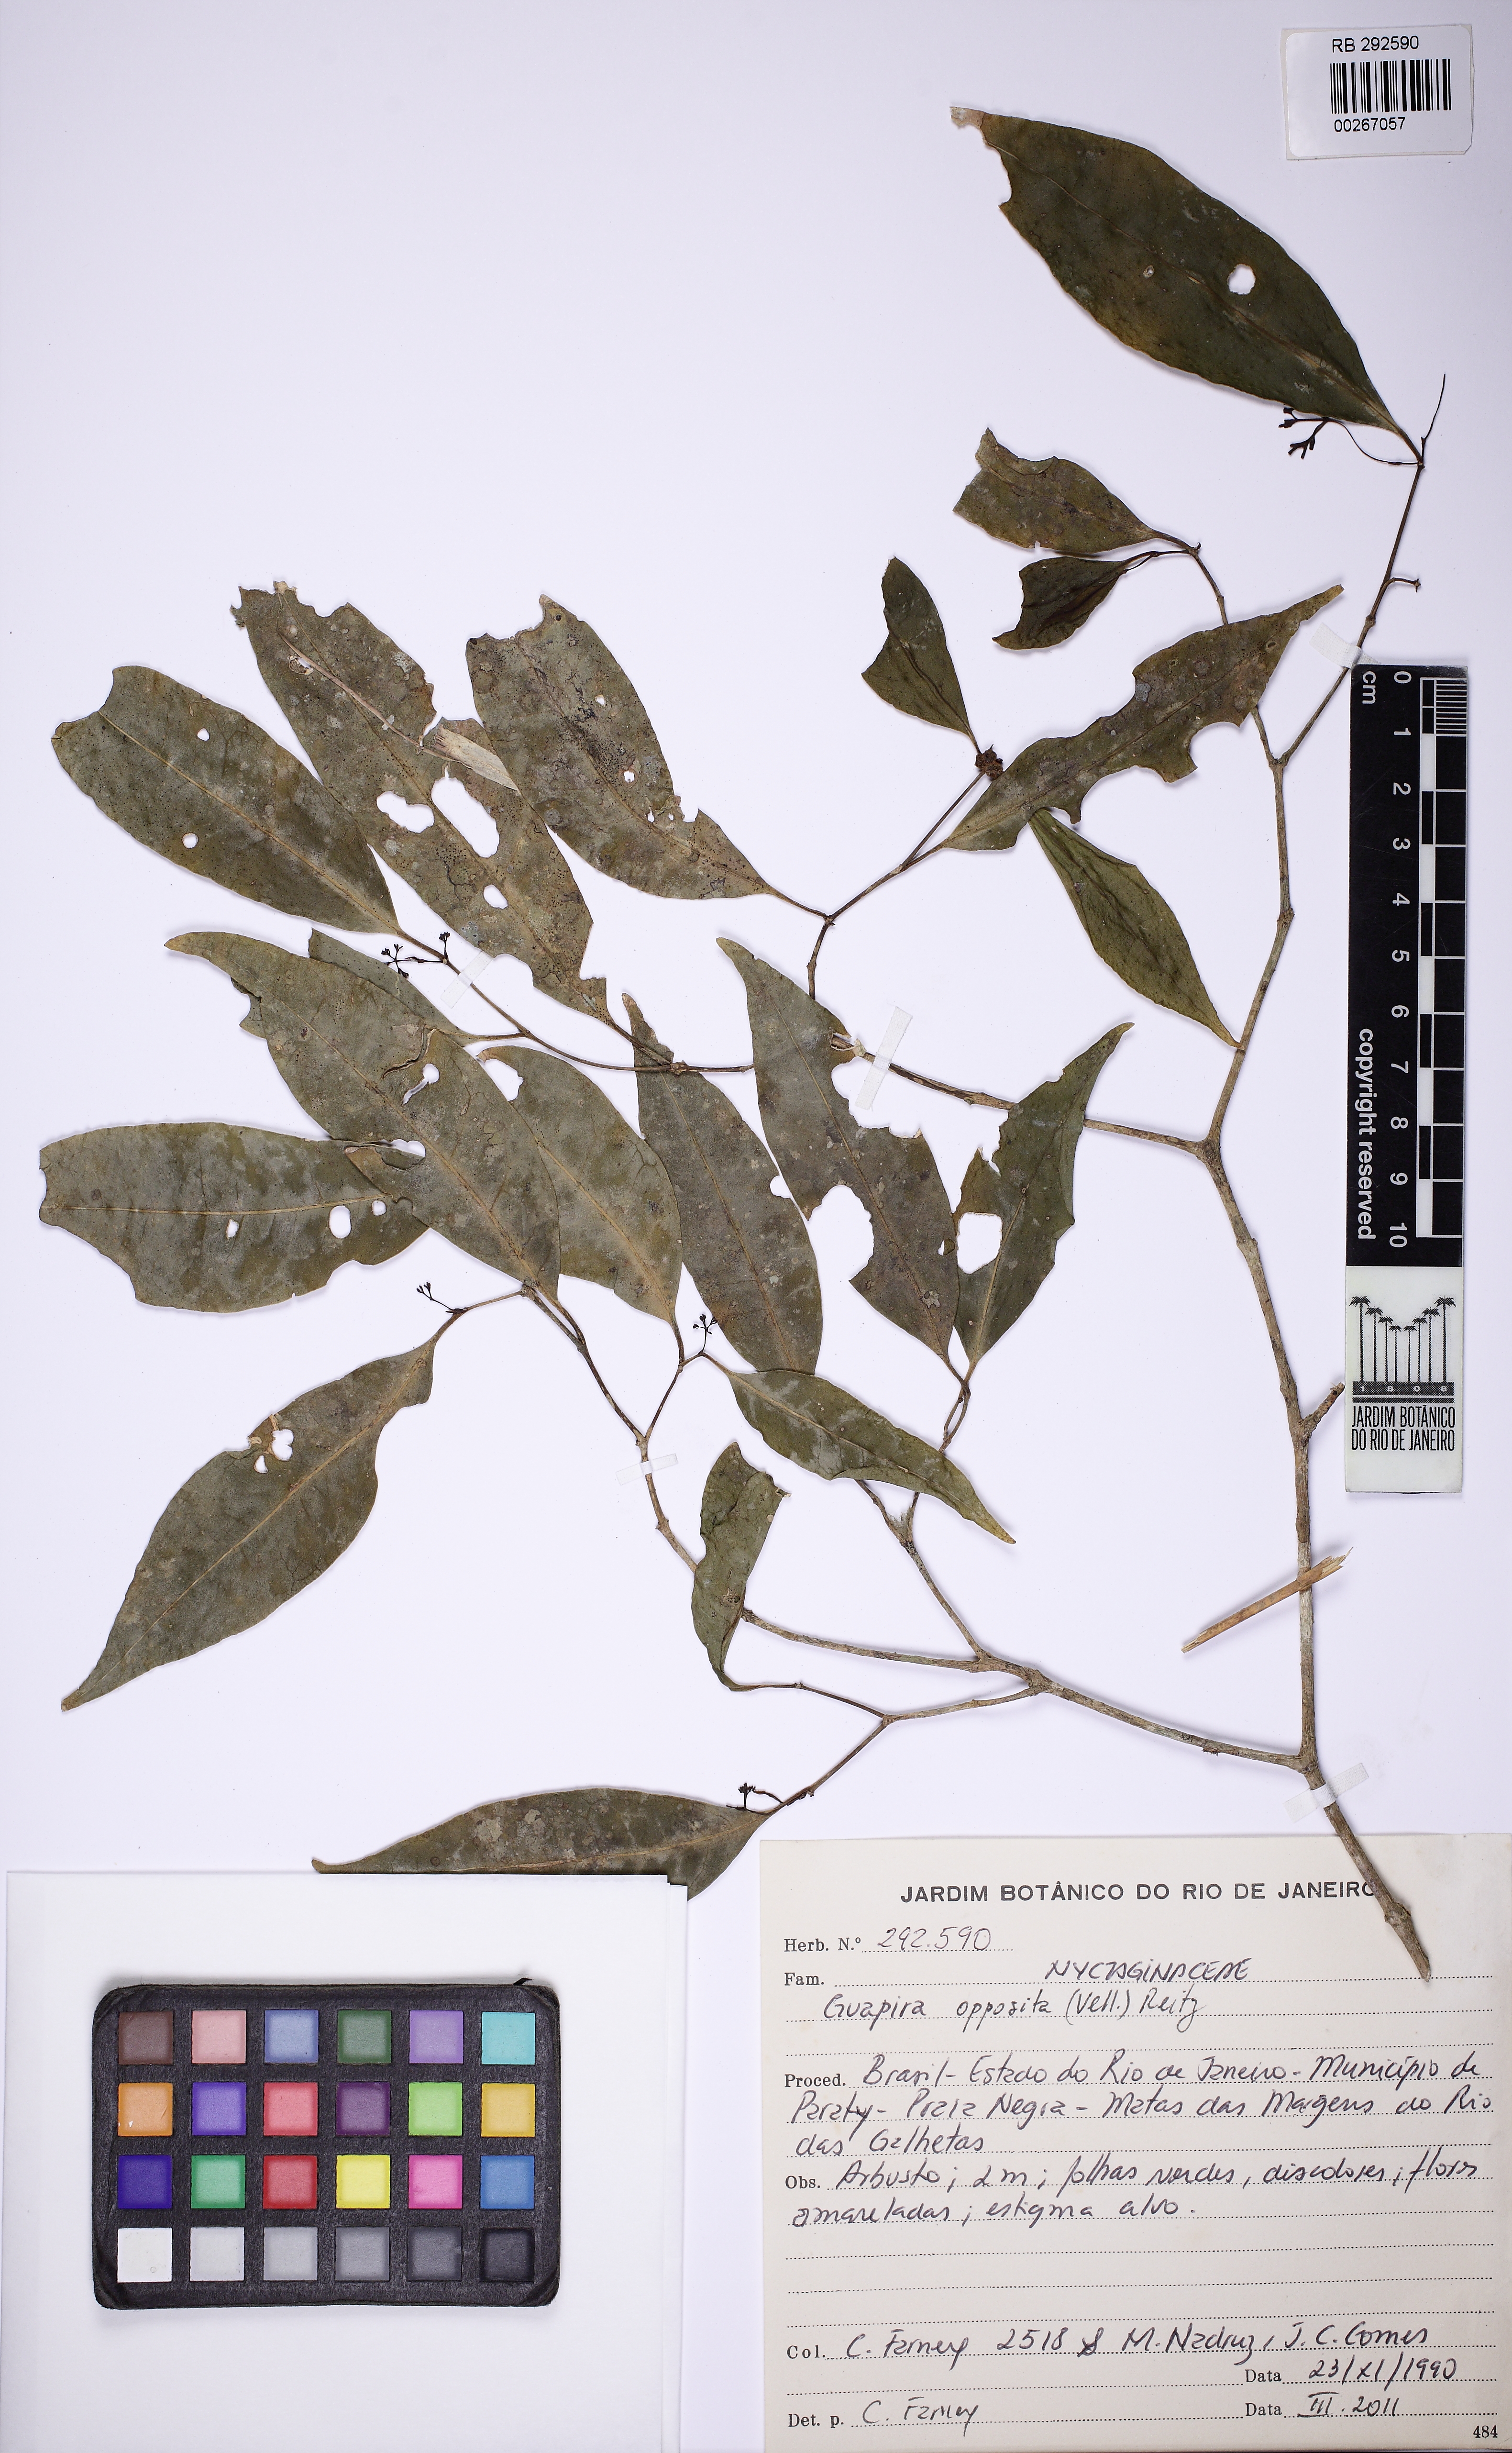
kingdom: Plantae
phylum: Tracheophyta
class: Magnoliopsida
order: Caryophyllales
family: Nyctaginaceae
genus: Guapira
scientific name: Guapira opposita
